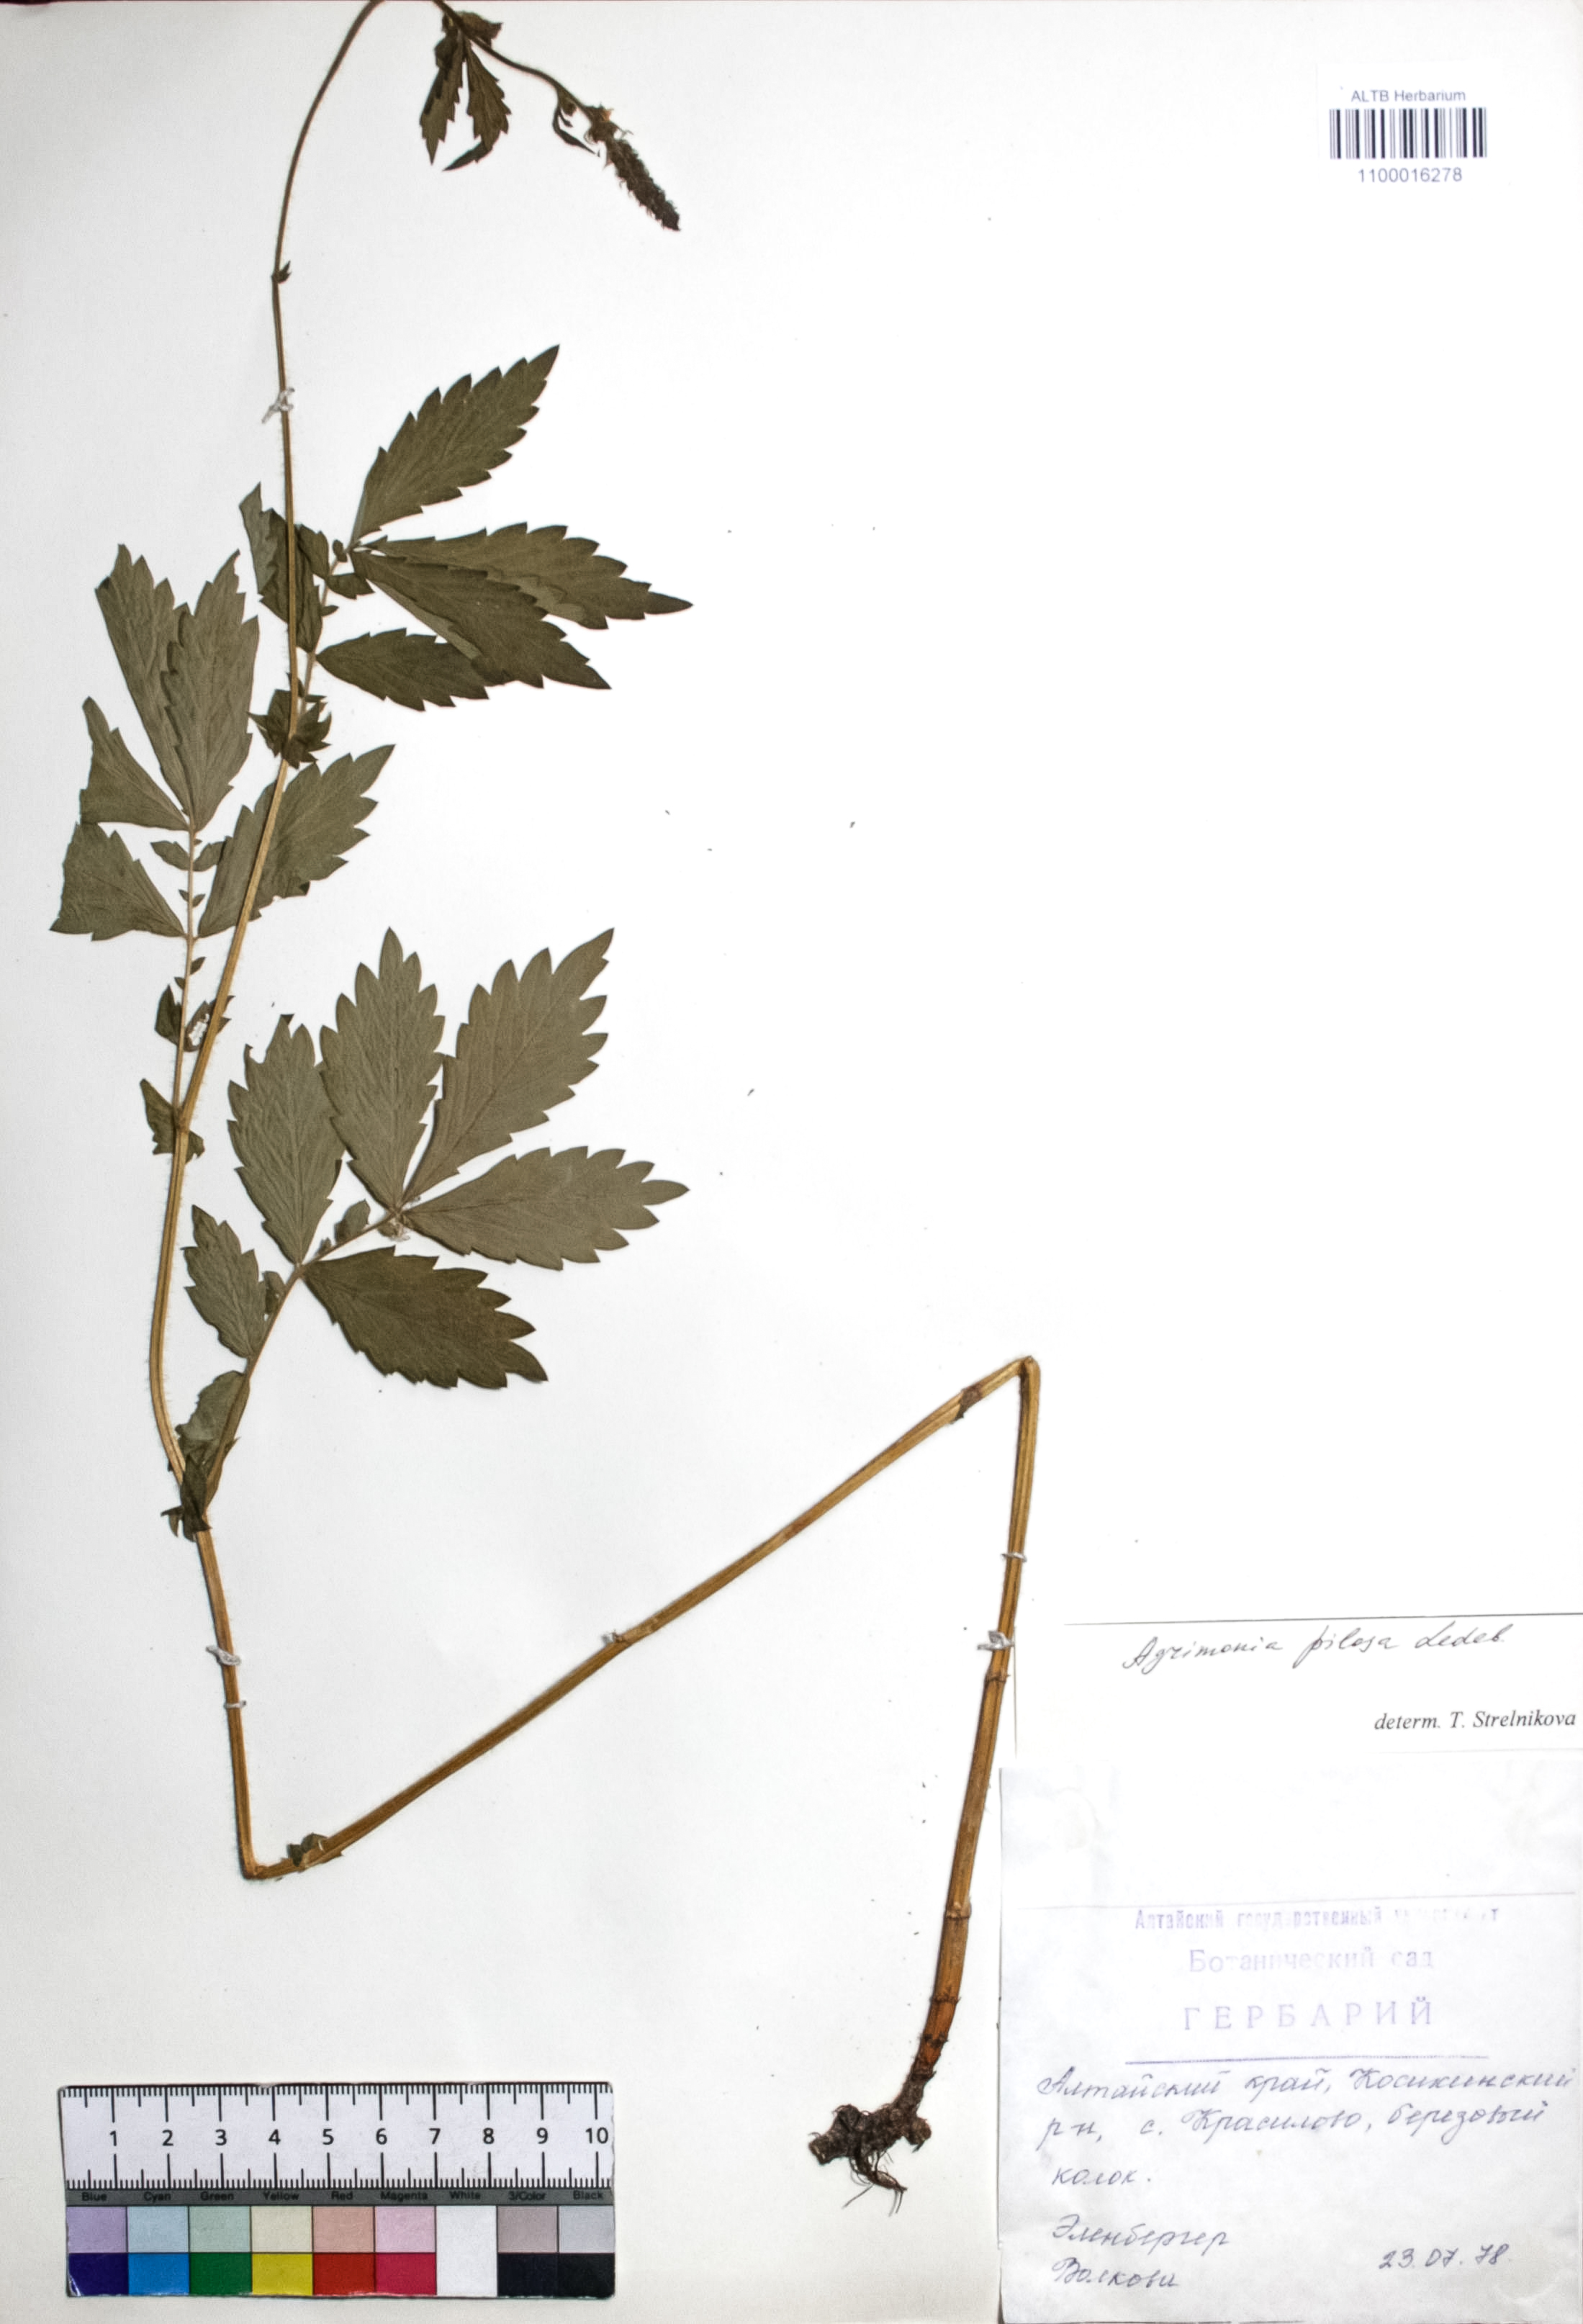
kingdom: Plantae
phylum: Tracheophyta
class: Magnoliopsida
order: Rosales
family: Rosaceae
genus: Agrimonia
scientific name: Agrimonia pilosa
